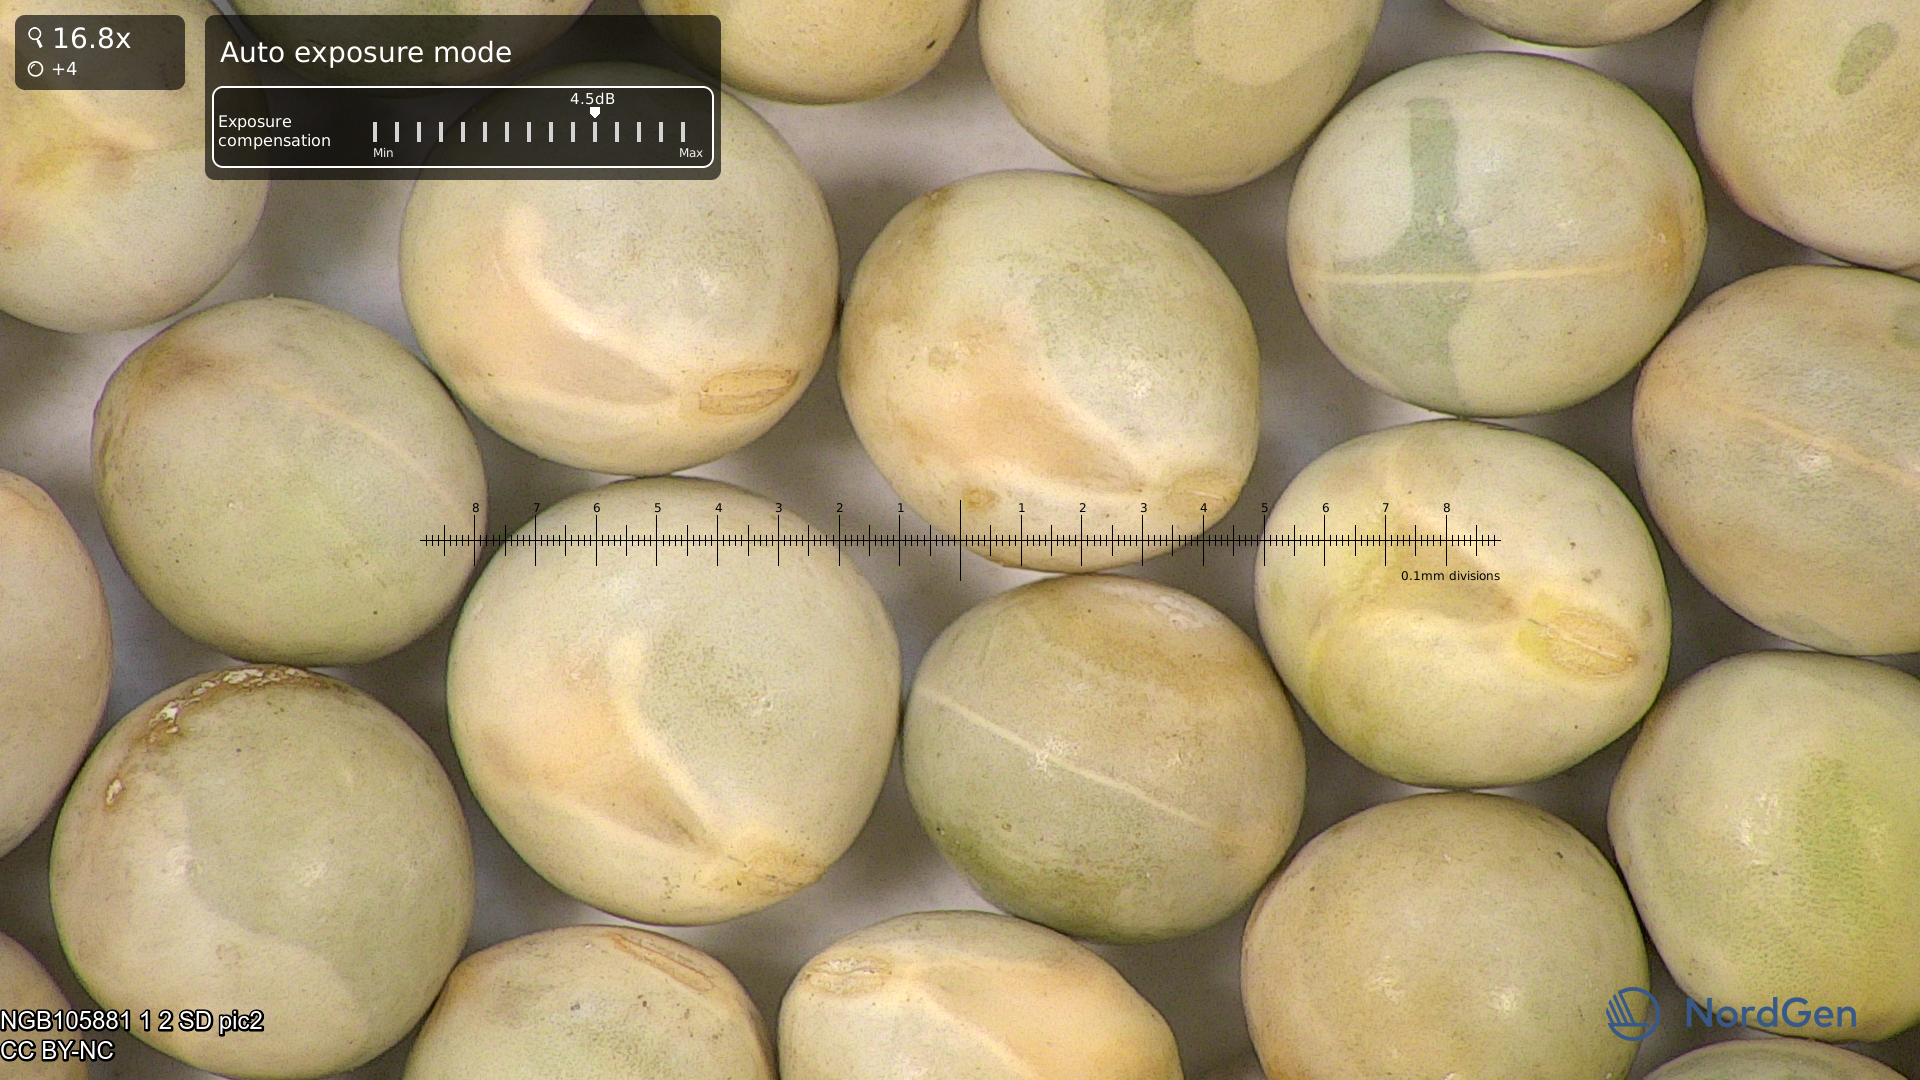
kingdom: Plantae
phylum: Tracheophyta
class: Magnoliopsida
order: Fabales
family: Fabaceae
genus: Lathyrus
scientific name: Lathyrus oleraceus
